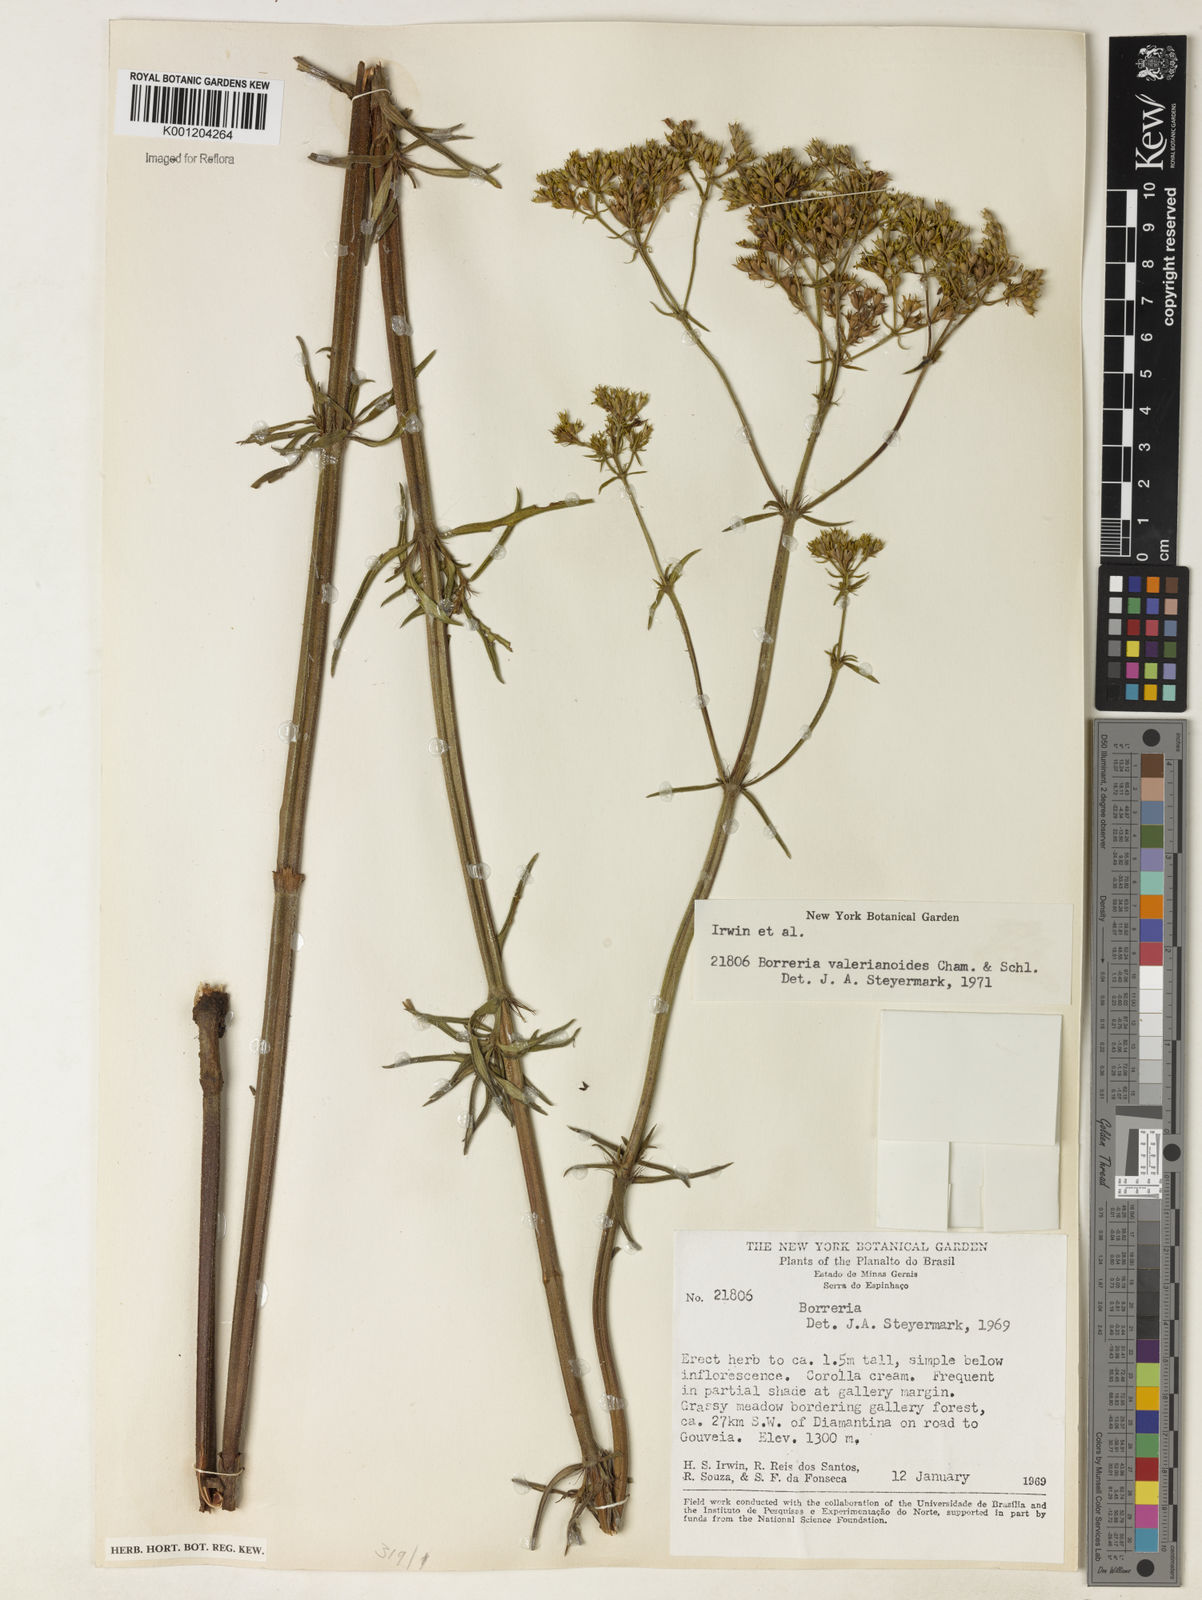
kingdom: Plantae
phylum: Tracheophyta
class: Magnoliopsida
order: Gentianales
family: Rubiaceae
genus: Galianthe
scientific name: Galianthe valerianoides
